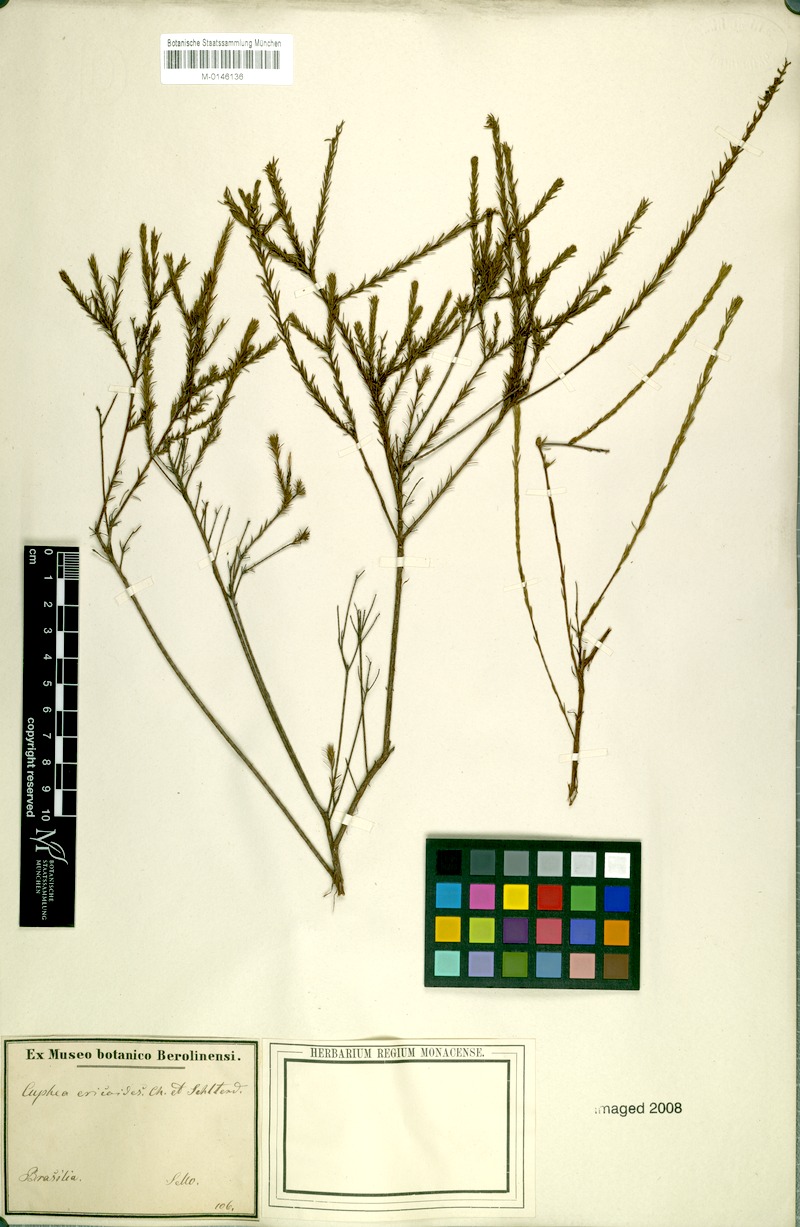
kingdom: Plantae
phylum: Tracheophyta
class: Magnoliopsida
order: Myrtales
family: Lythraceae
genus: Cuphea
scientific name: Cuphea ericoides
